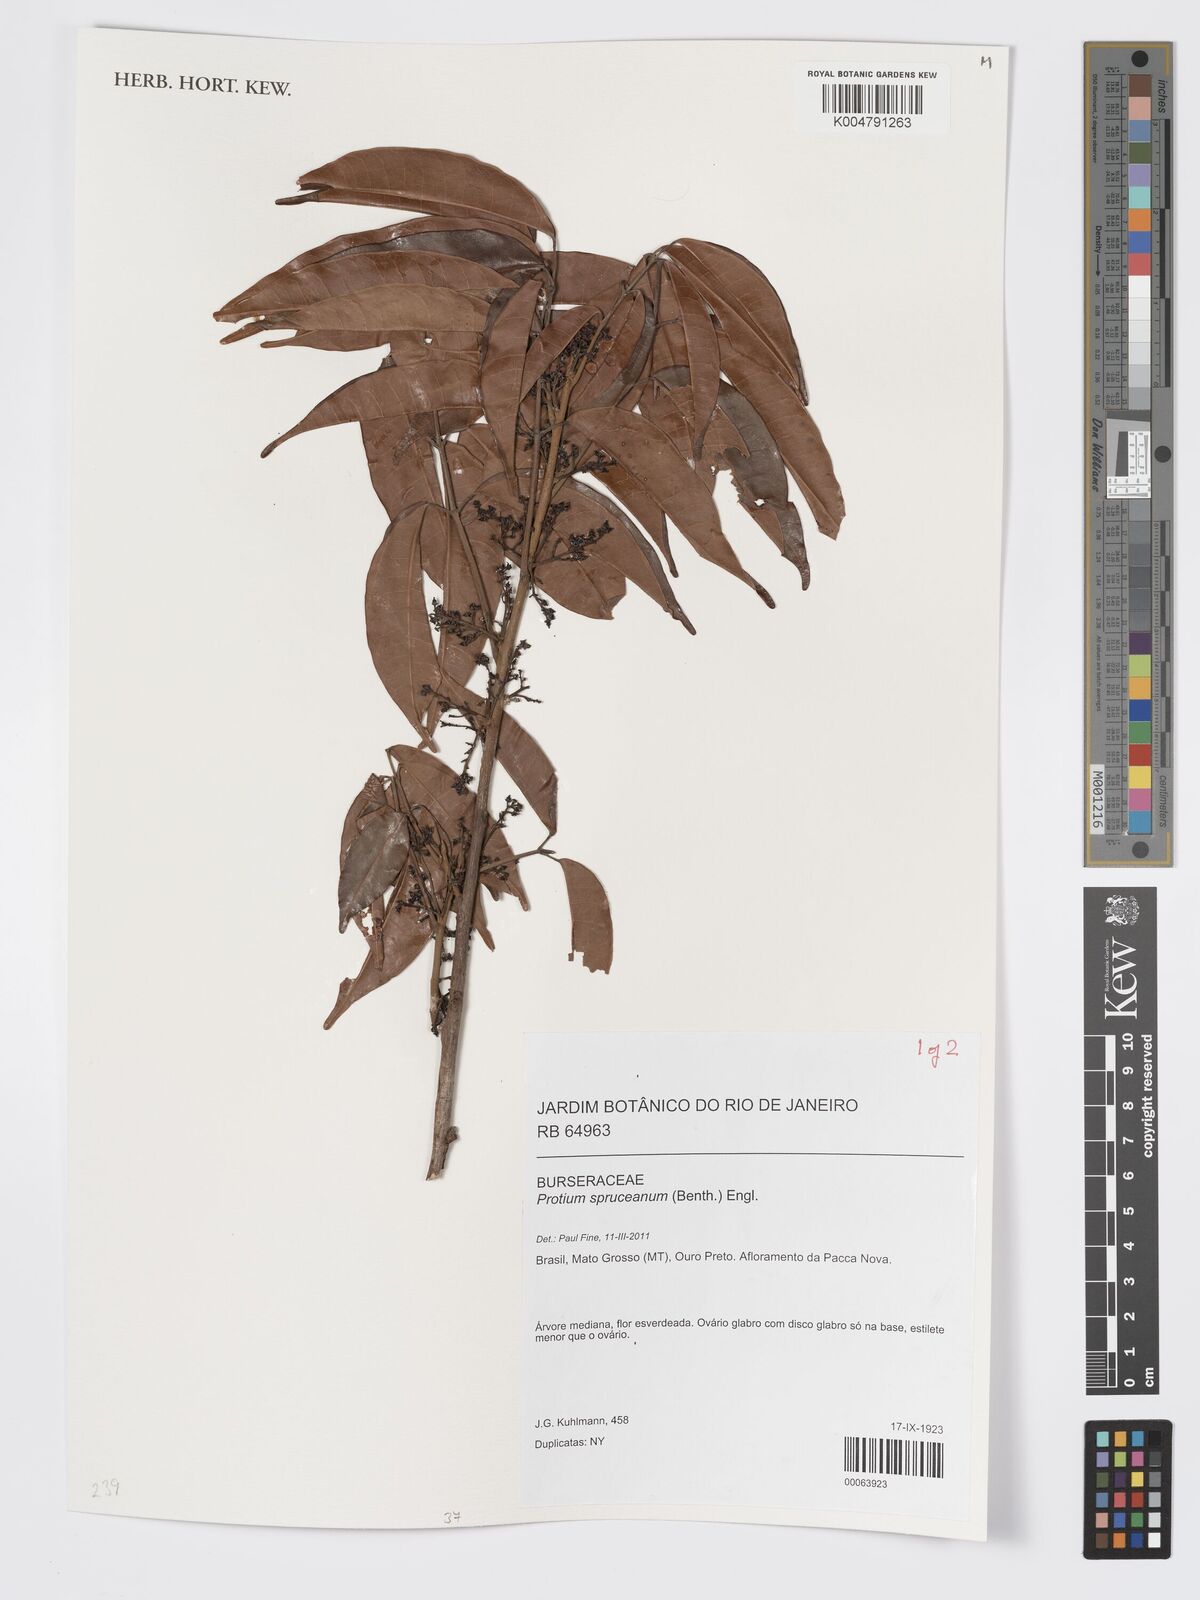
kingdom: Plantae
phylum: Tracheophyta
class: Magnoliopsida
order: Sapindales
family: Burseraceae
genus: Protium
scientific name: Protium spruceanum
